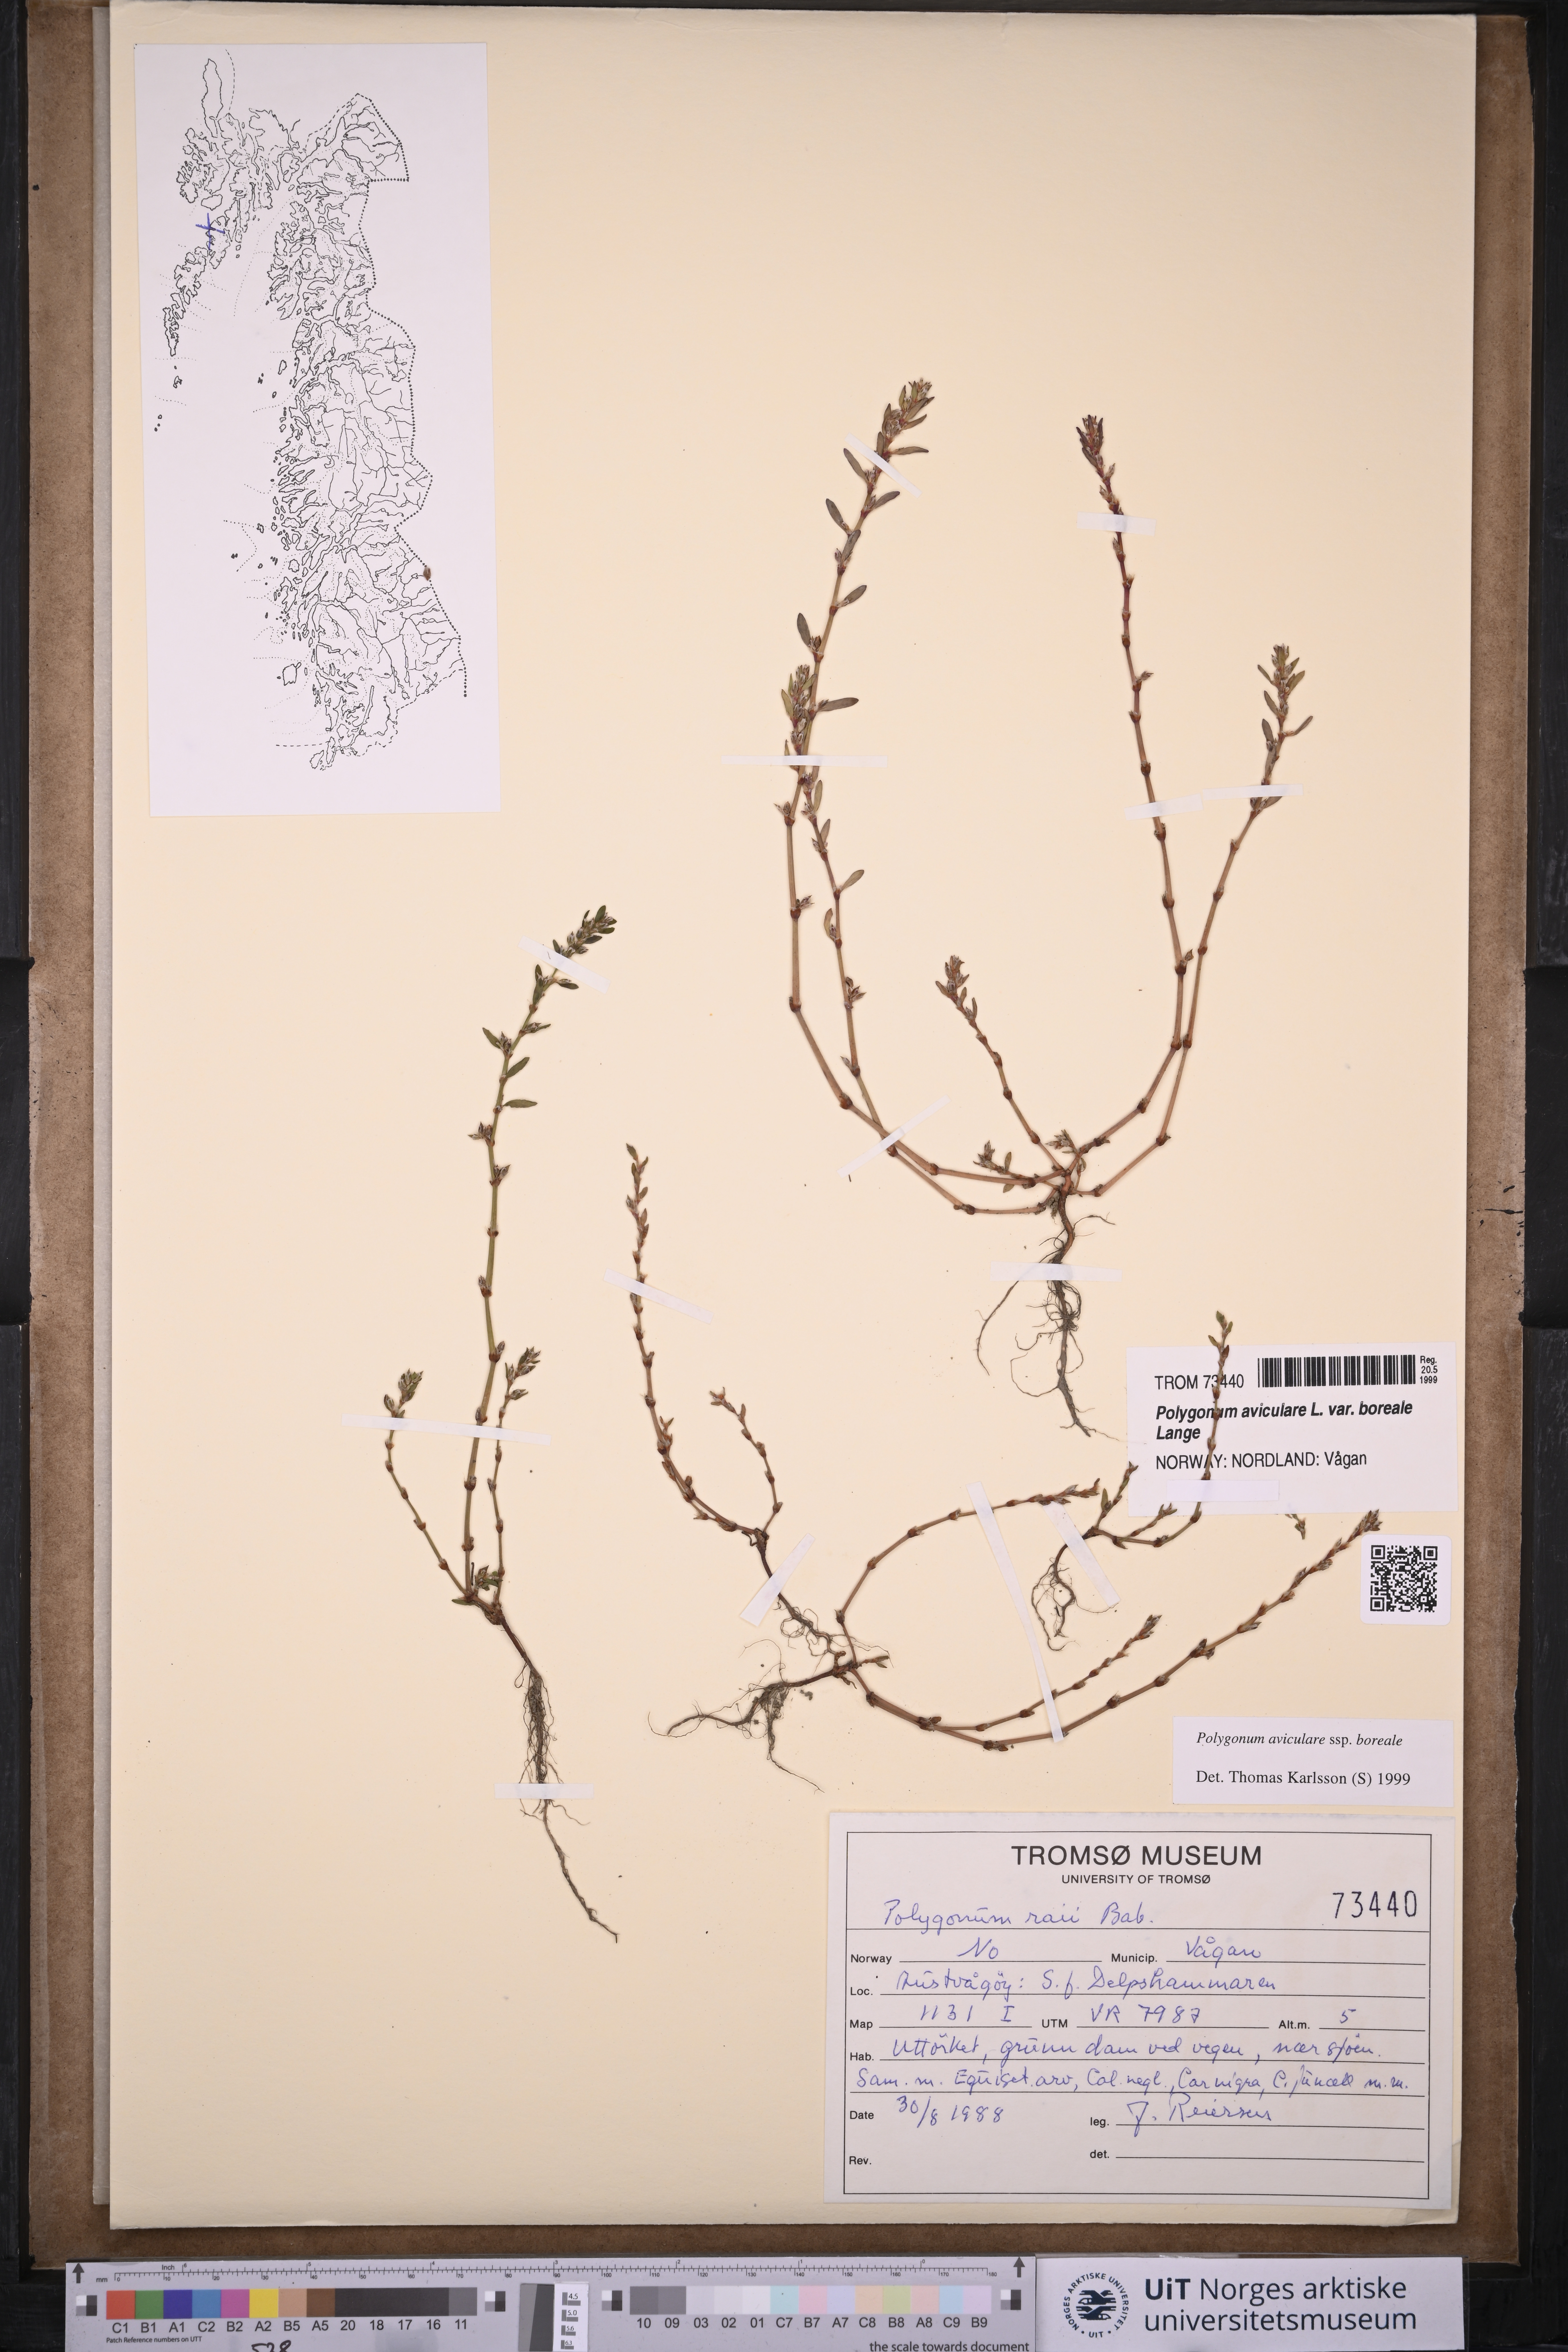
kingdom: Plantae
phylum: Tracheophyta
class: Magnoliopsida
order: Caryophyllales
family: Polygonaceae
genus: Polygonum
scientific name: Polygonum boreale
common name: Northern knotgrass
